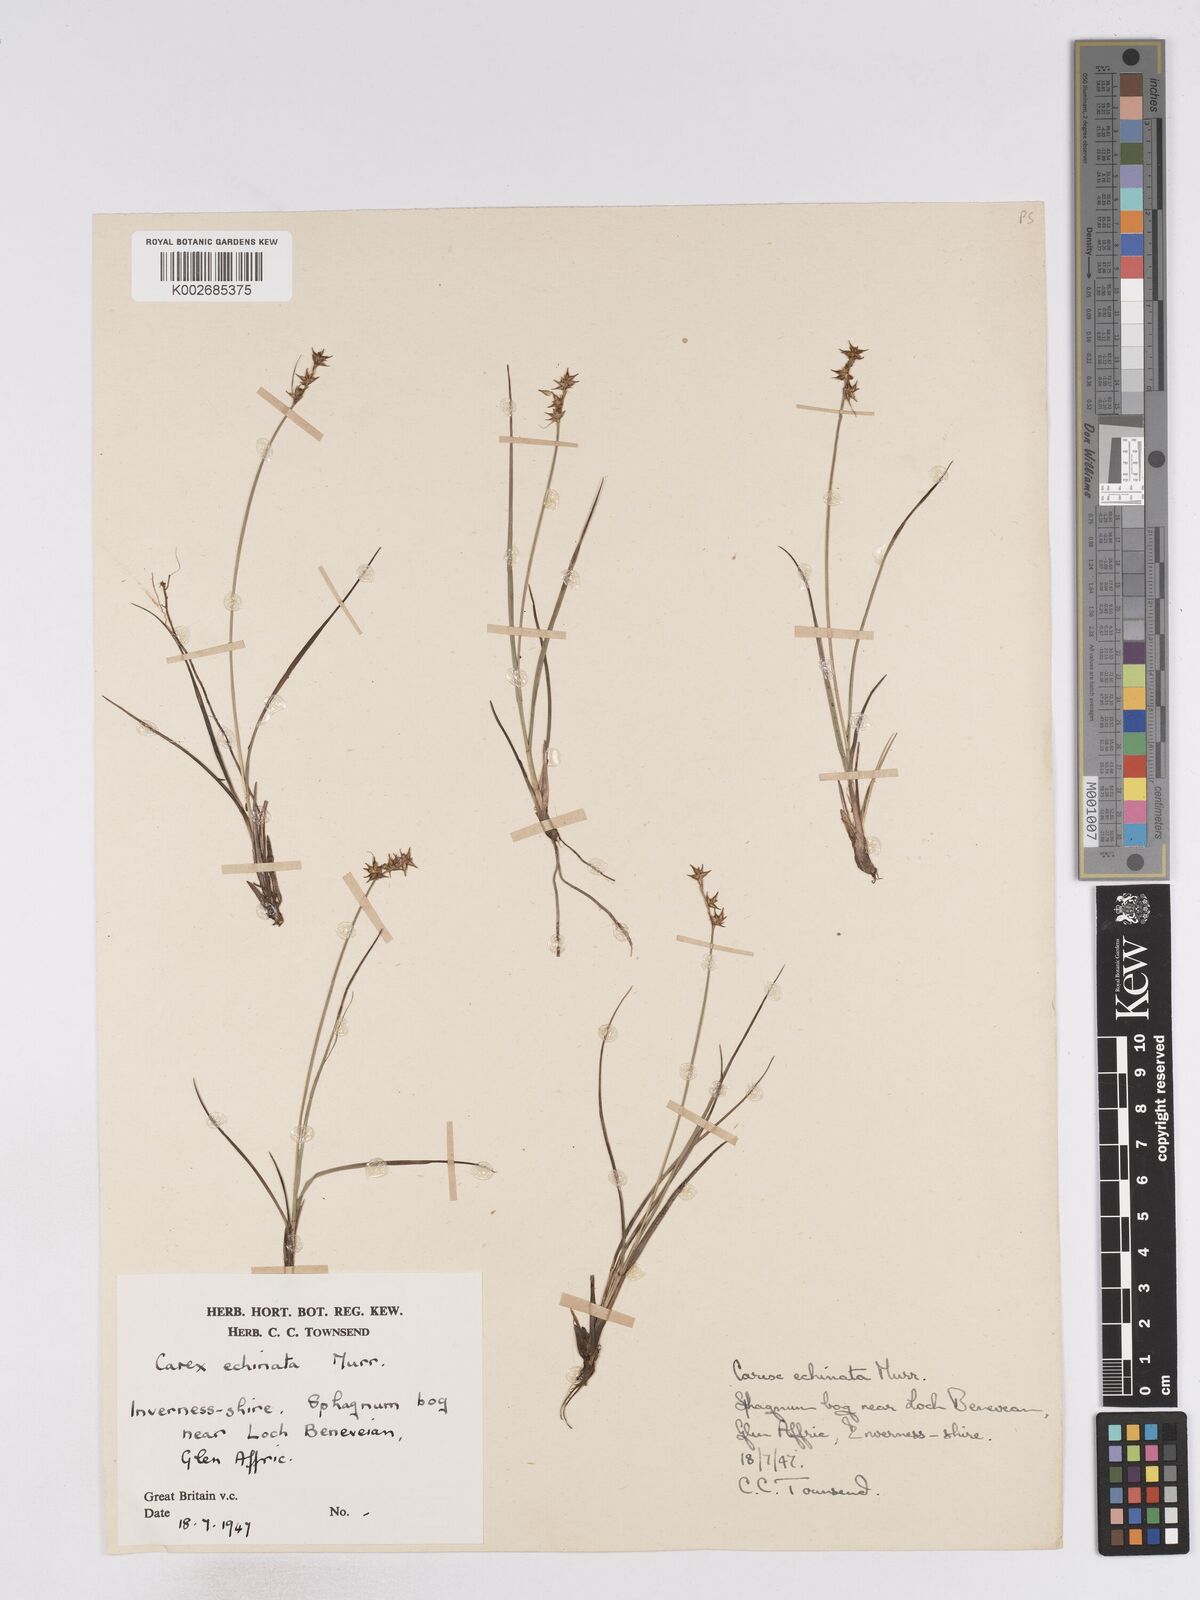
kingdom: Plantae
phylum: Tracheophyta
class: Liliopsida
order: Poales
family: Cyperaceae
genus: Carex
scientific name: Carex echinata
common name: Star sedge
